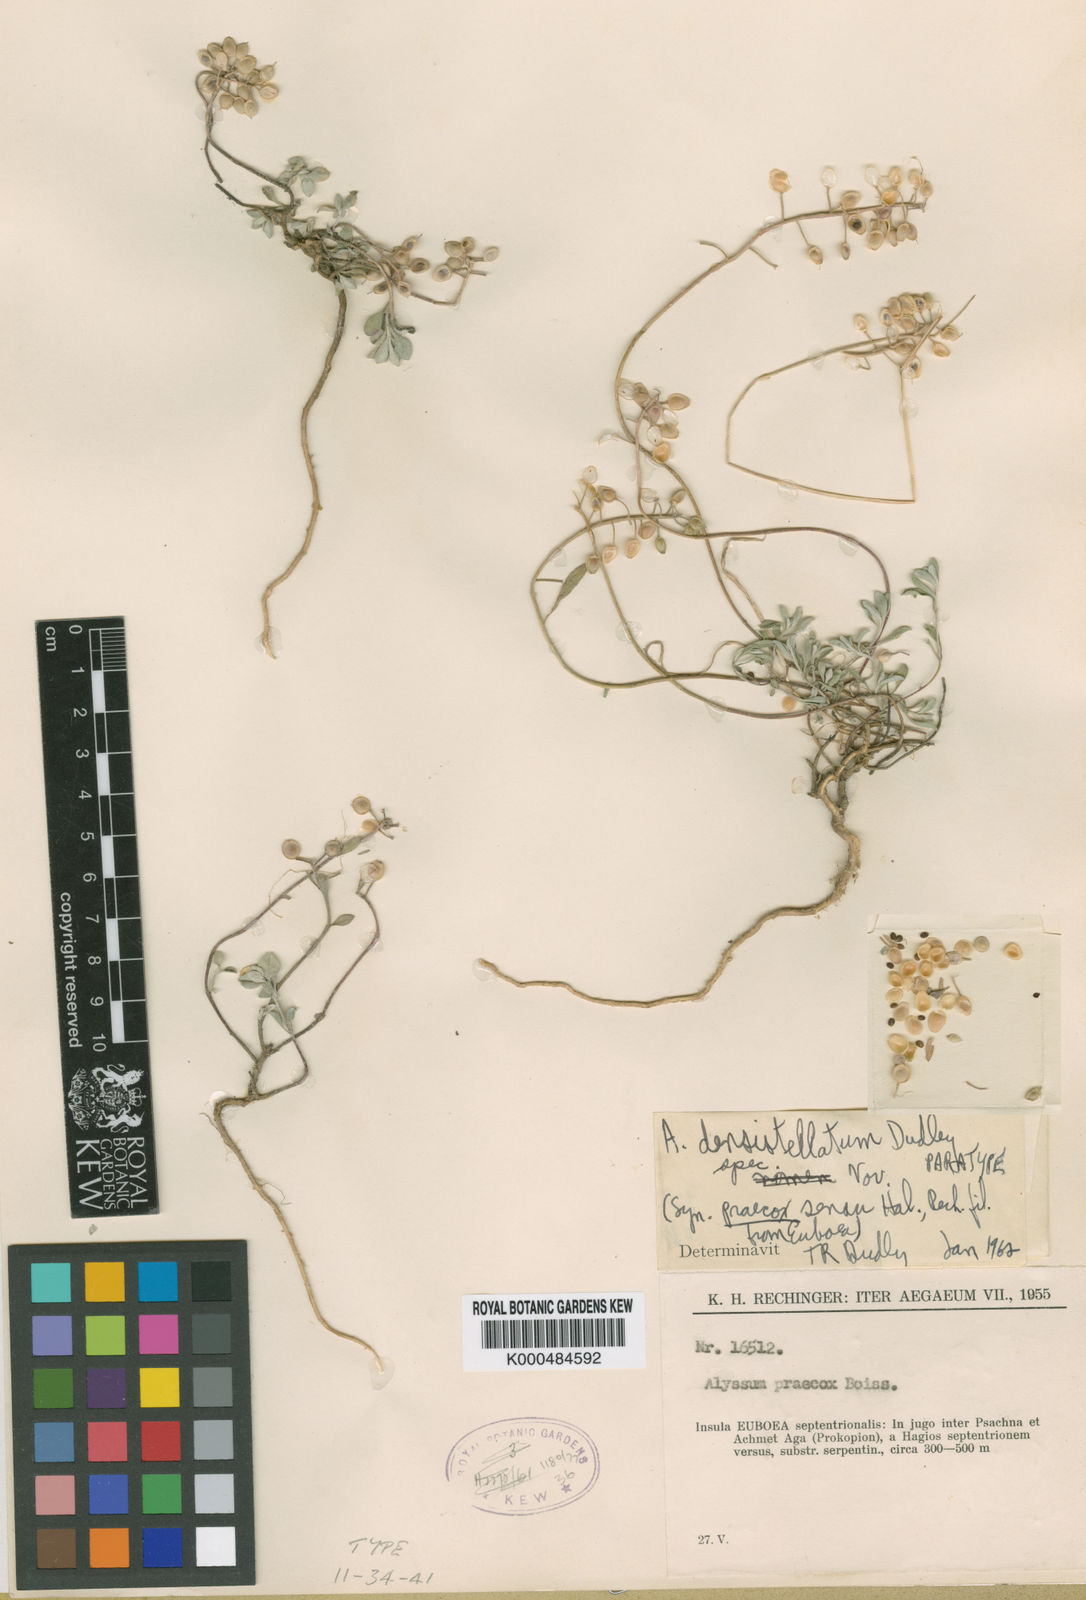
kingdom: Plantae
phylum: Tracheophyta
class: Magnoliopsida
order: Brassicales
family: Brassicaceae
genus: Alyssum
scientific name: Alyssum densistellatum
